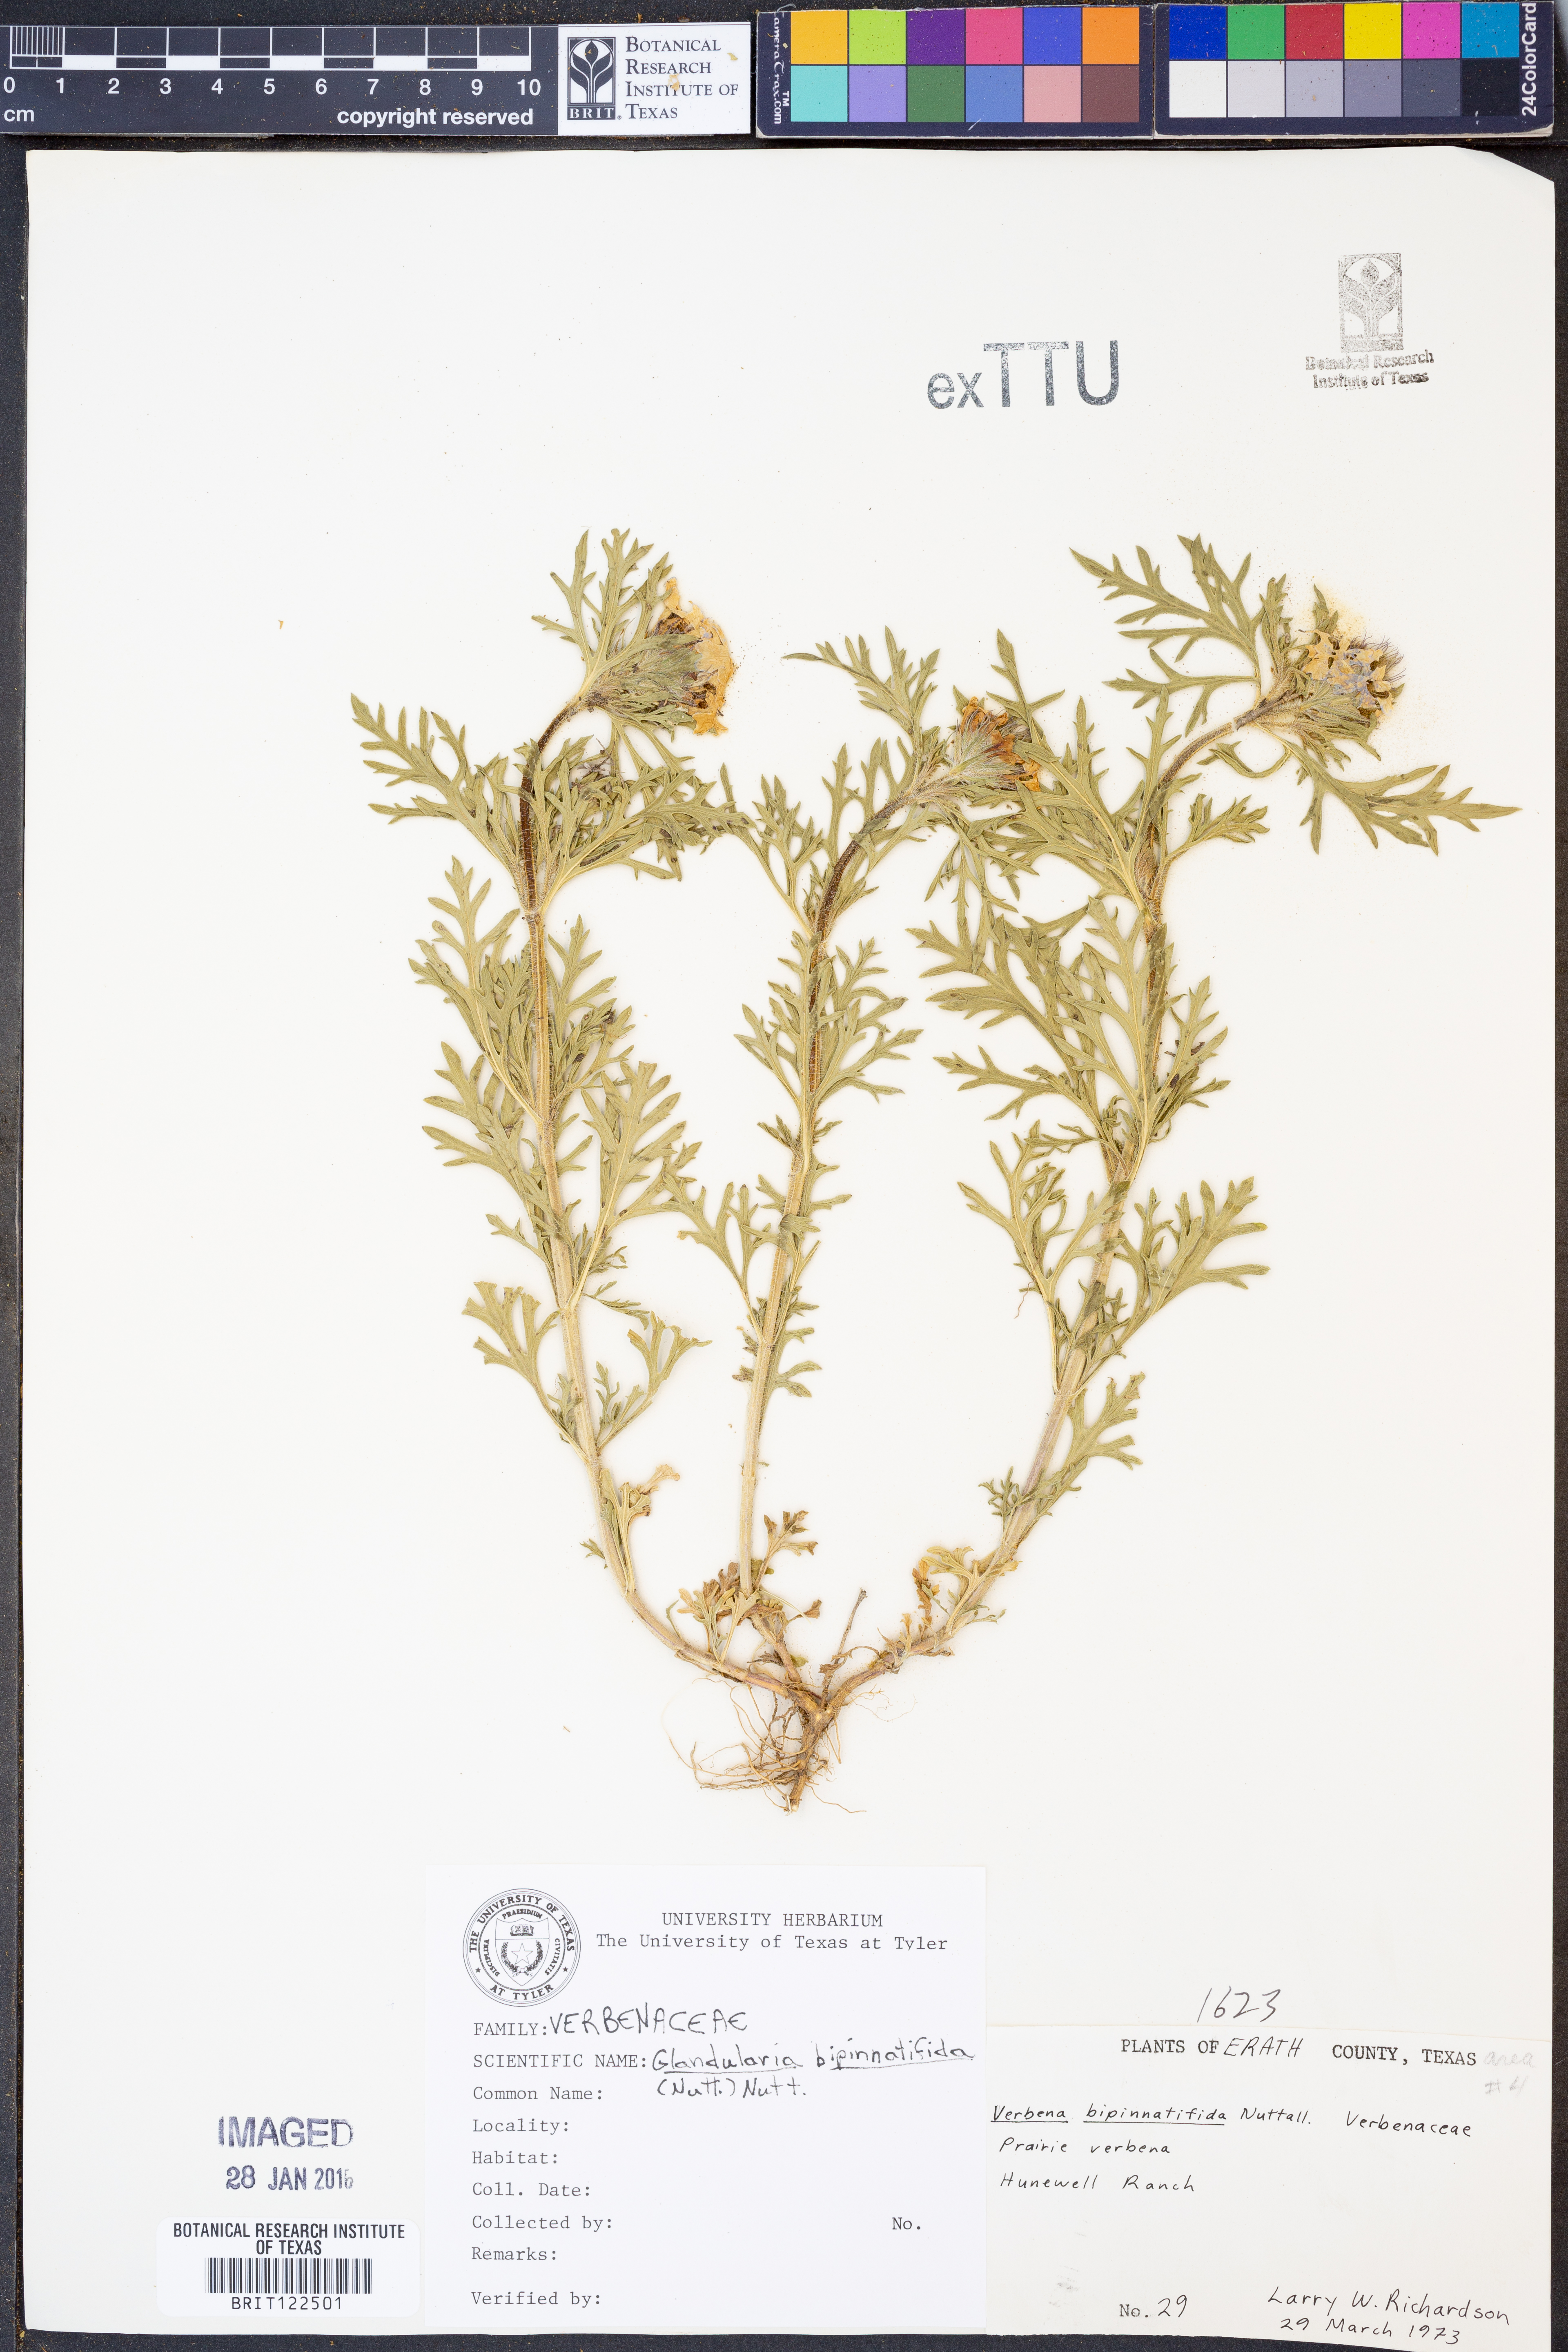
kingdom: Plantae
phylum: Tracheophyta
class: Magnoliopsida
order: Lamiales
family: Verbenaceae
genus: Verbena
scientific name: Verbena bipinnatifida
